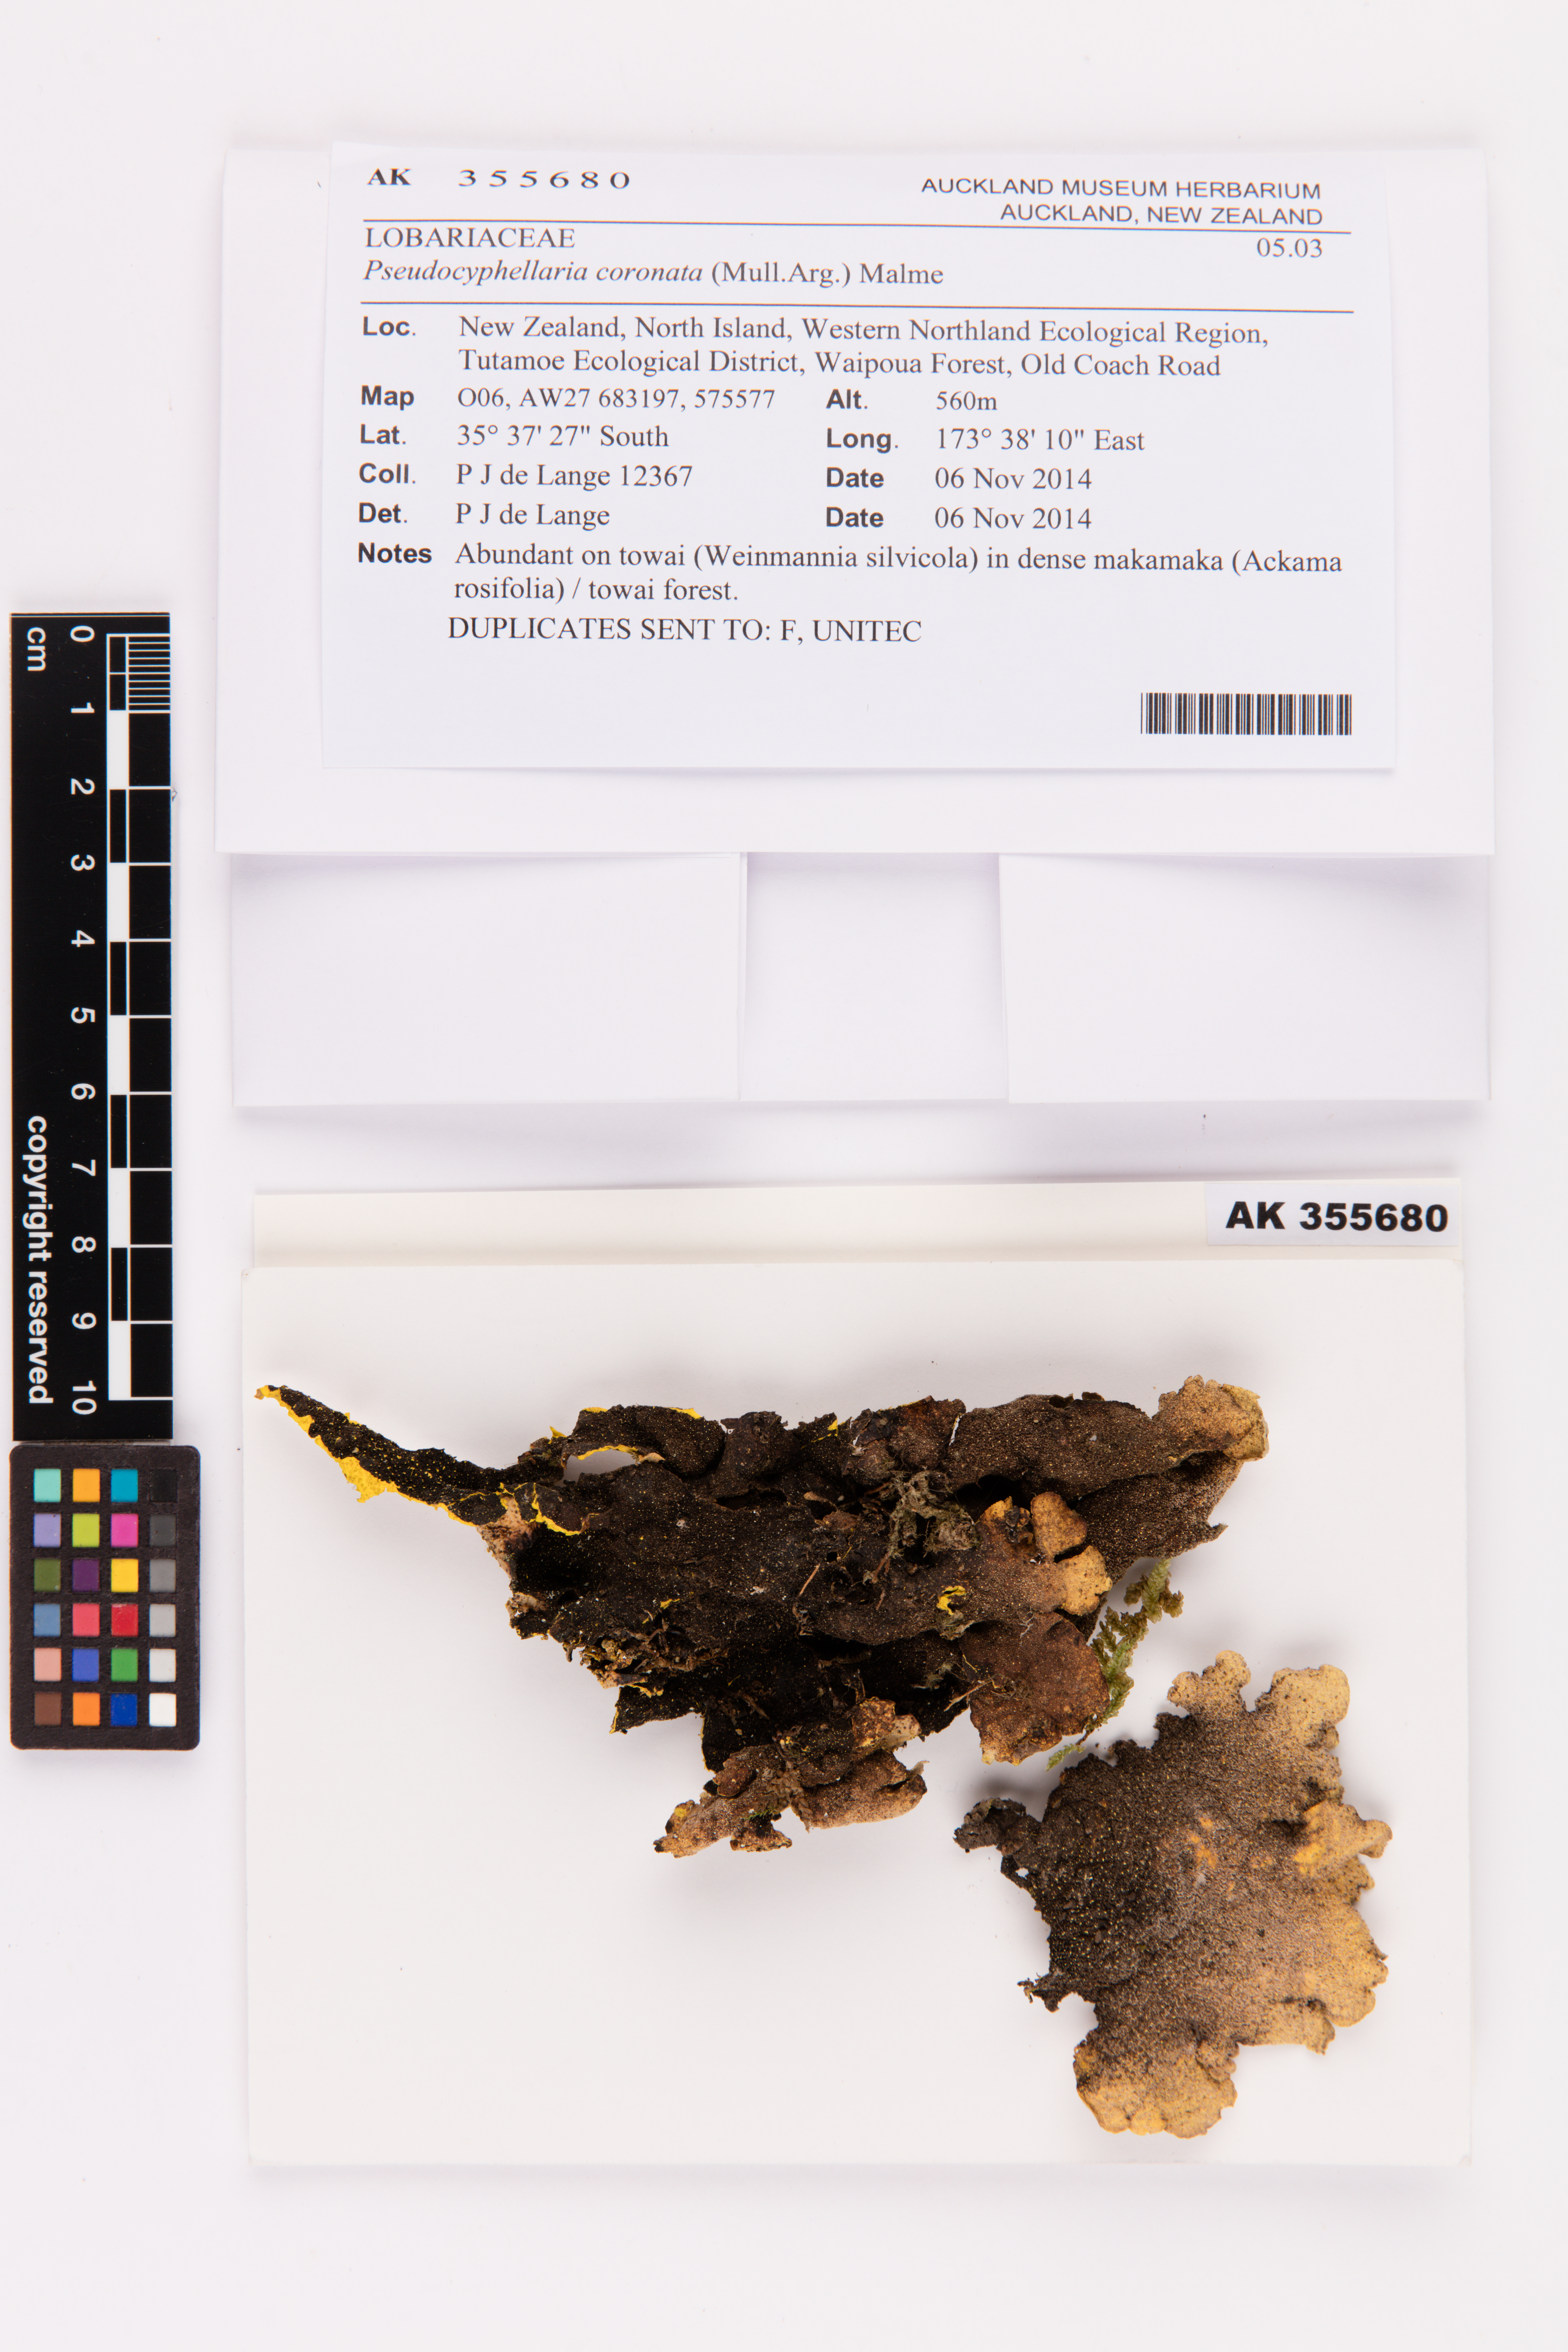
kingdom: Fungi
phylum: Ascomycota
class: Lecanoromycetes
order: Peltigerales
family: Lobariaceae
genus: Yarrumia
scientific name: Yarrumia coronata
